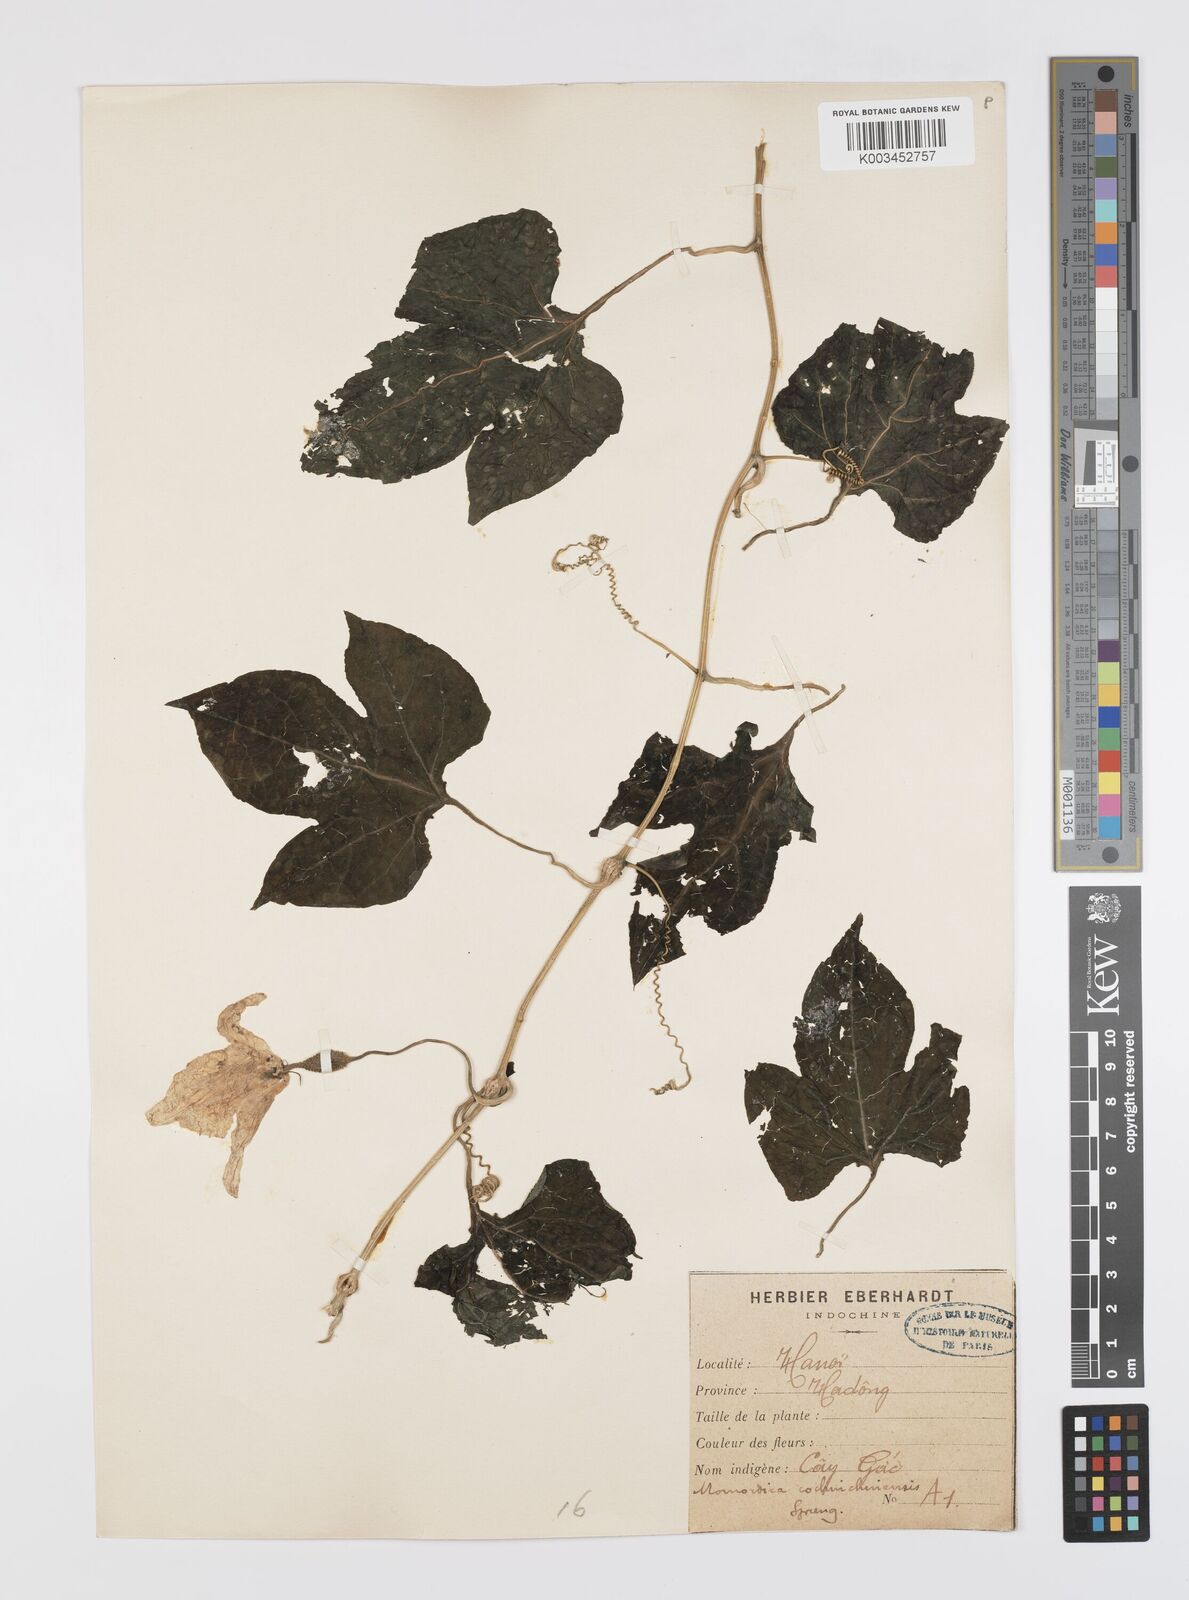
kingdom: Plantae
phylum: Tracheophyta
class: Magnoliopsida
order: Cucurbitales
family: Cucurbitaceae
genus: Momordica
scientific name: Momordica cochinchinensis
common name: Chinese bitter-cucumber
